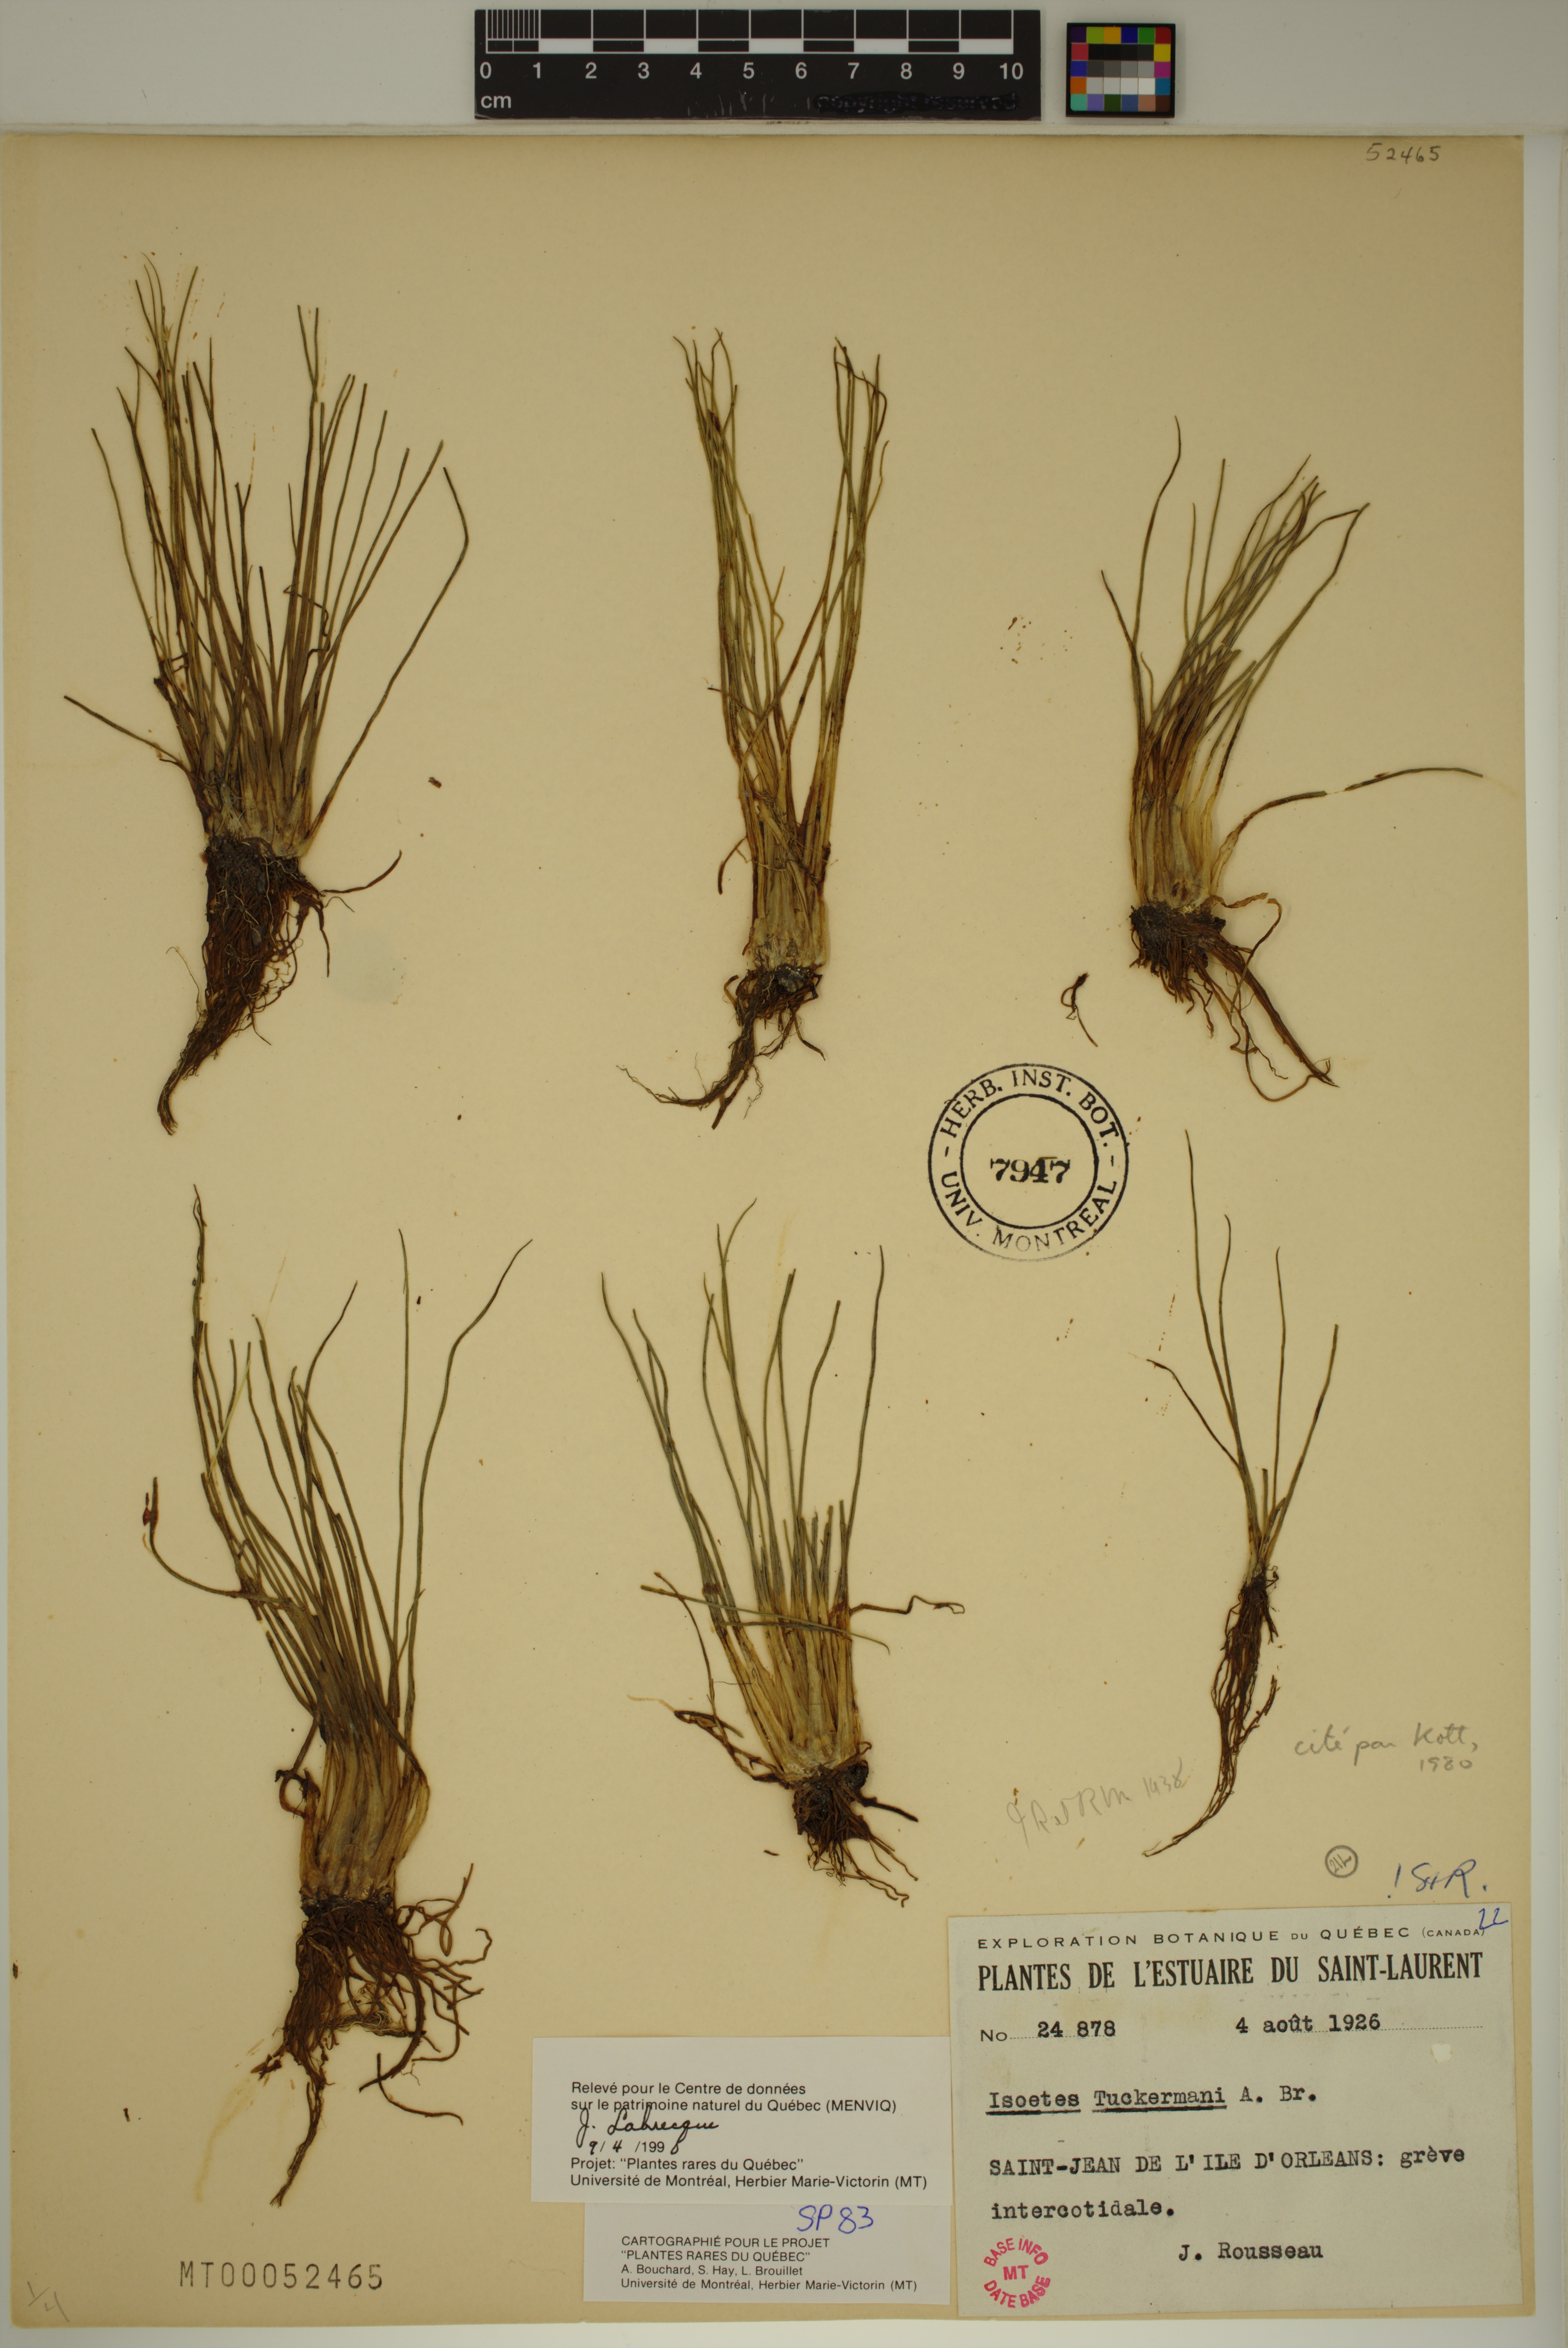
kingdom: Plantae
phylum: Tracheophyta
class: Lycopodiopsida
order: Isoetales
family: Isoetaceae
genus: Isoetes
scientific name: Isoetes laurentiana
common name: St. lawrence quillwort
